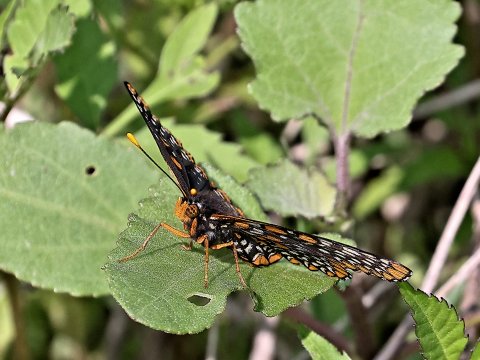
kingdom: Animalia
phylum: Arthropoda
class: Insecta
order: Lepidoptera
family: Nymphalidae
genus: Euphydryas
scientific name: Euphydryas phaeton
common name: Baltimore Checkerspot
